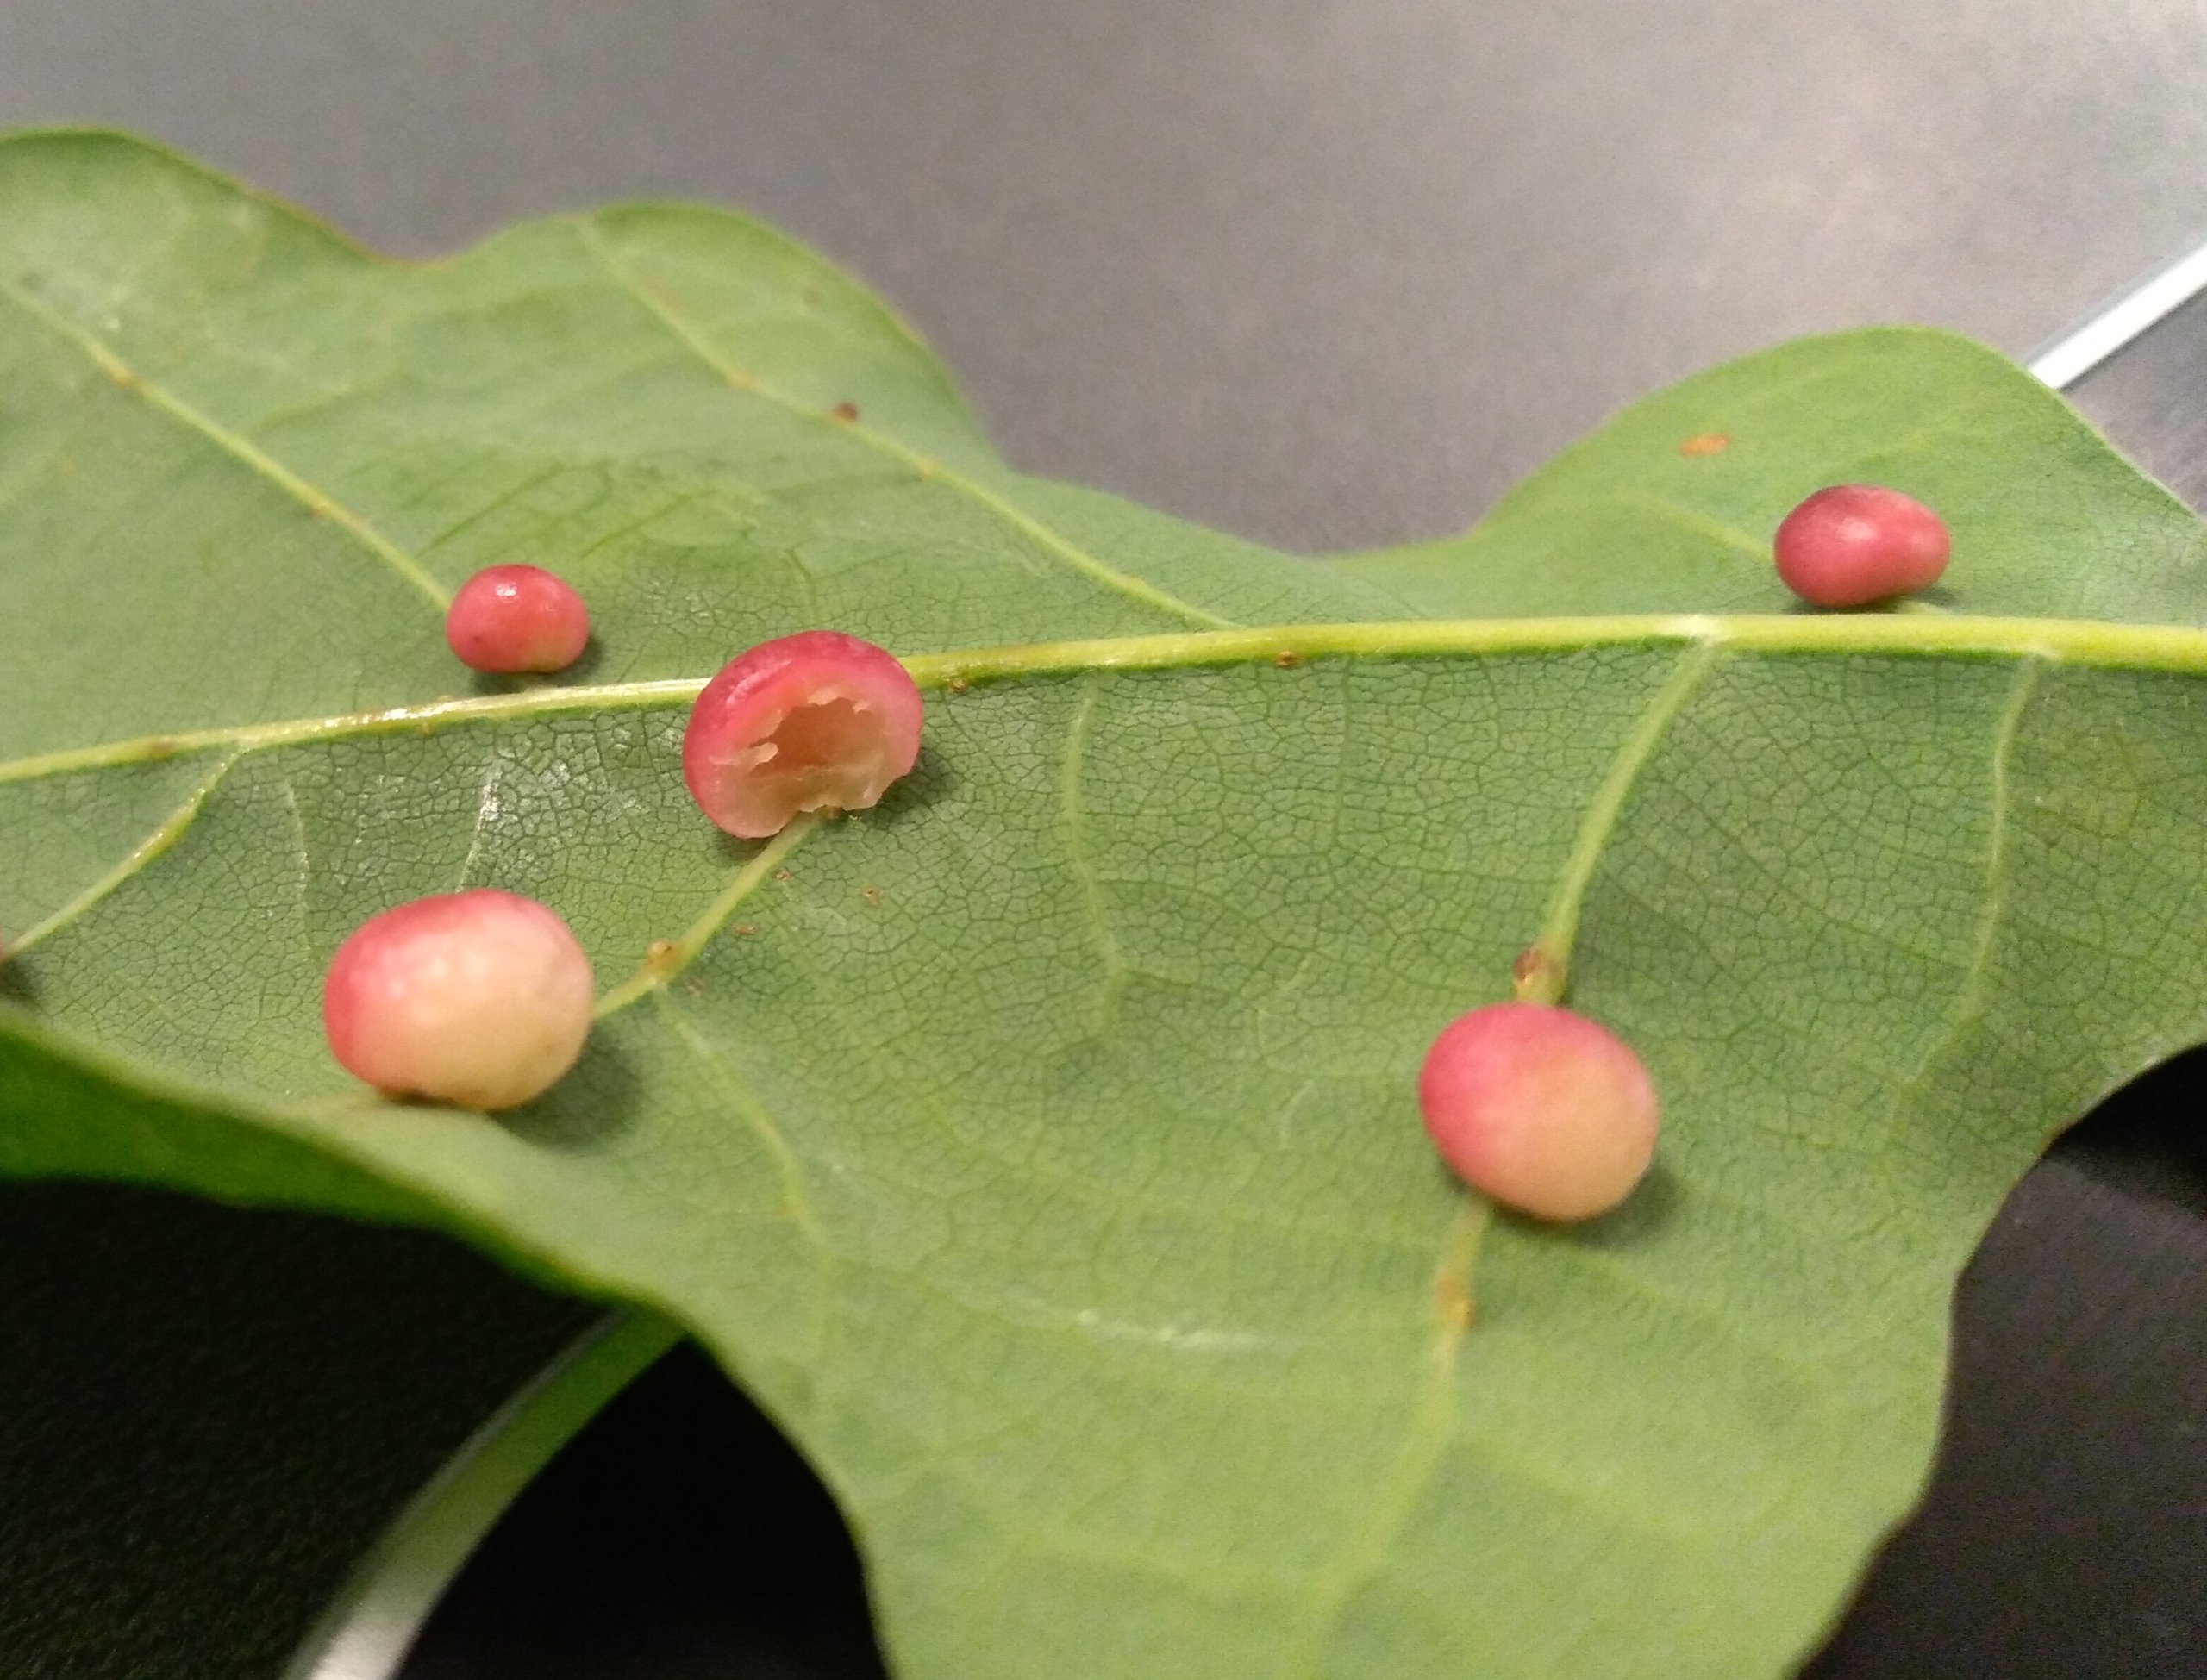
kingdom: Animalia
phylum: Arthropoda
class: Insecta
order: Hymenoptera
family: Cynipidae
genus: Cynips
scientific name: Cynips divisa
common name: Lille galæblehveps
